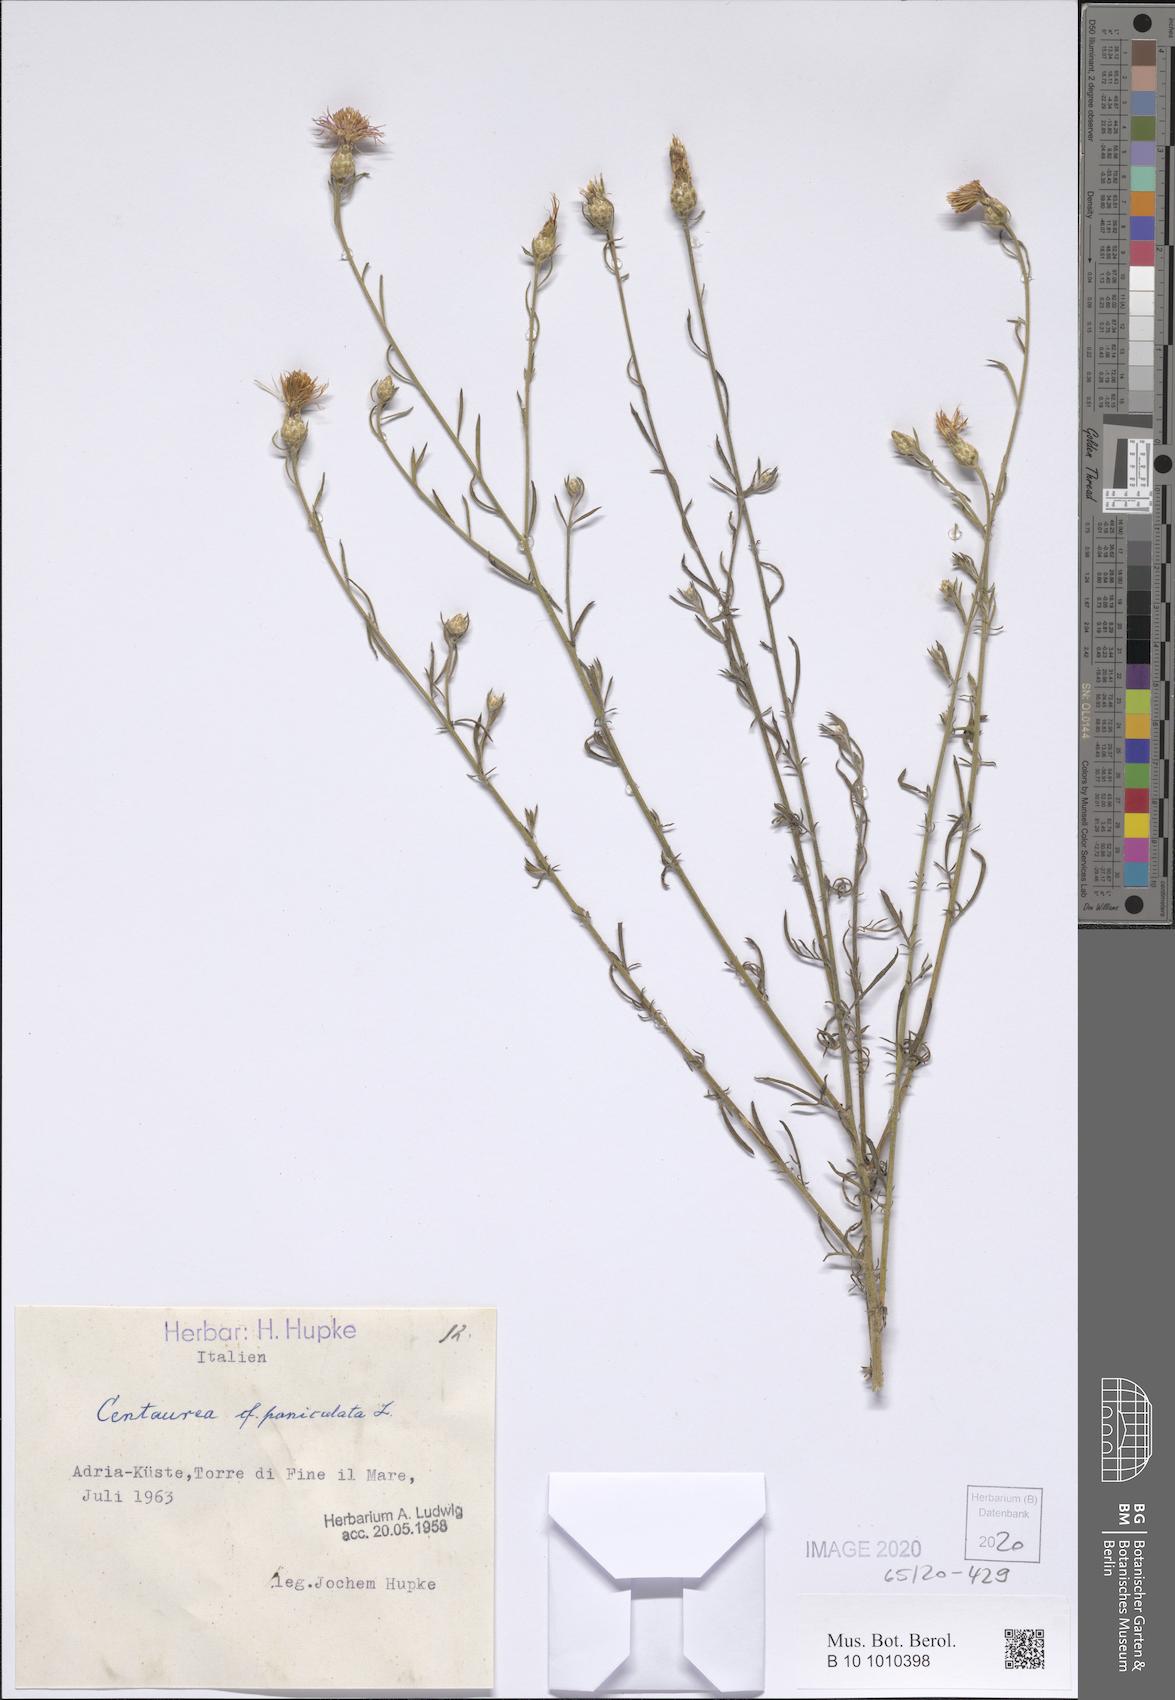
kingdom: Plantae
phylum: Tracheophyta
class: Magnoliopsida
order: Asterales
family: Asteraceae
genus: Centaurea
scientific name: Centaurea paniculata
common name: Jersey knapweed
